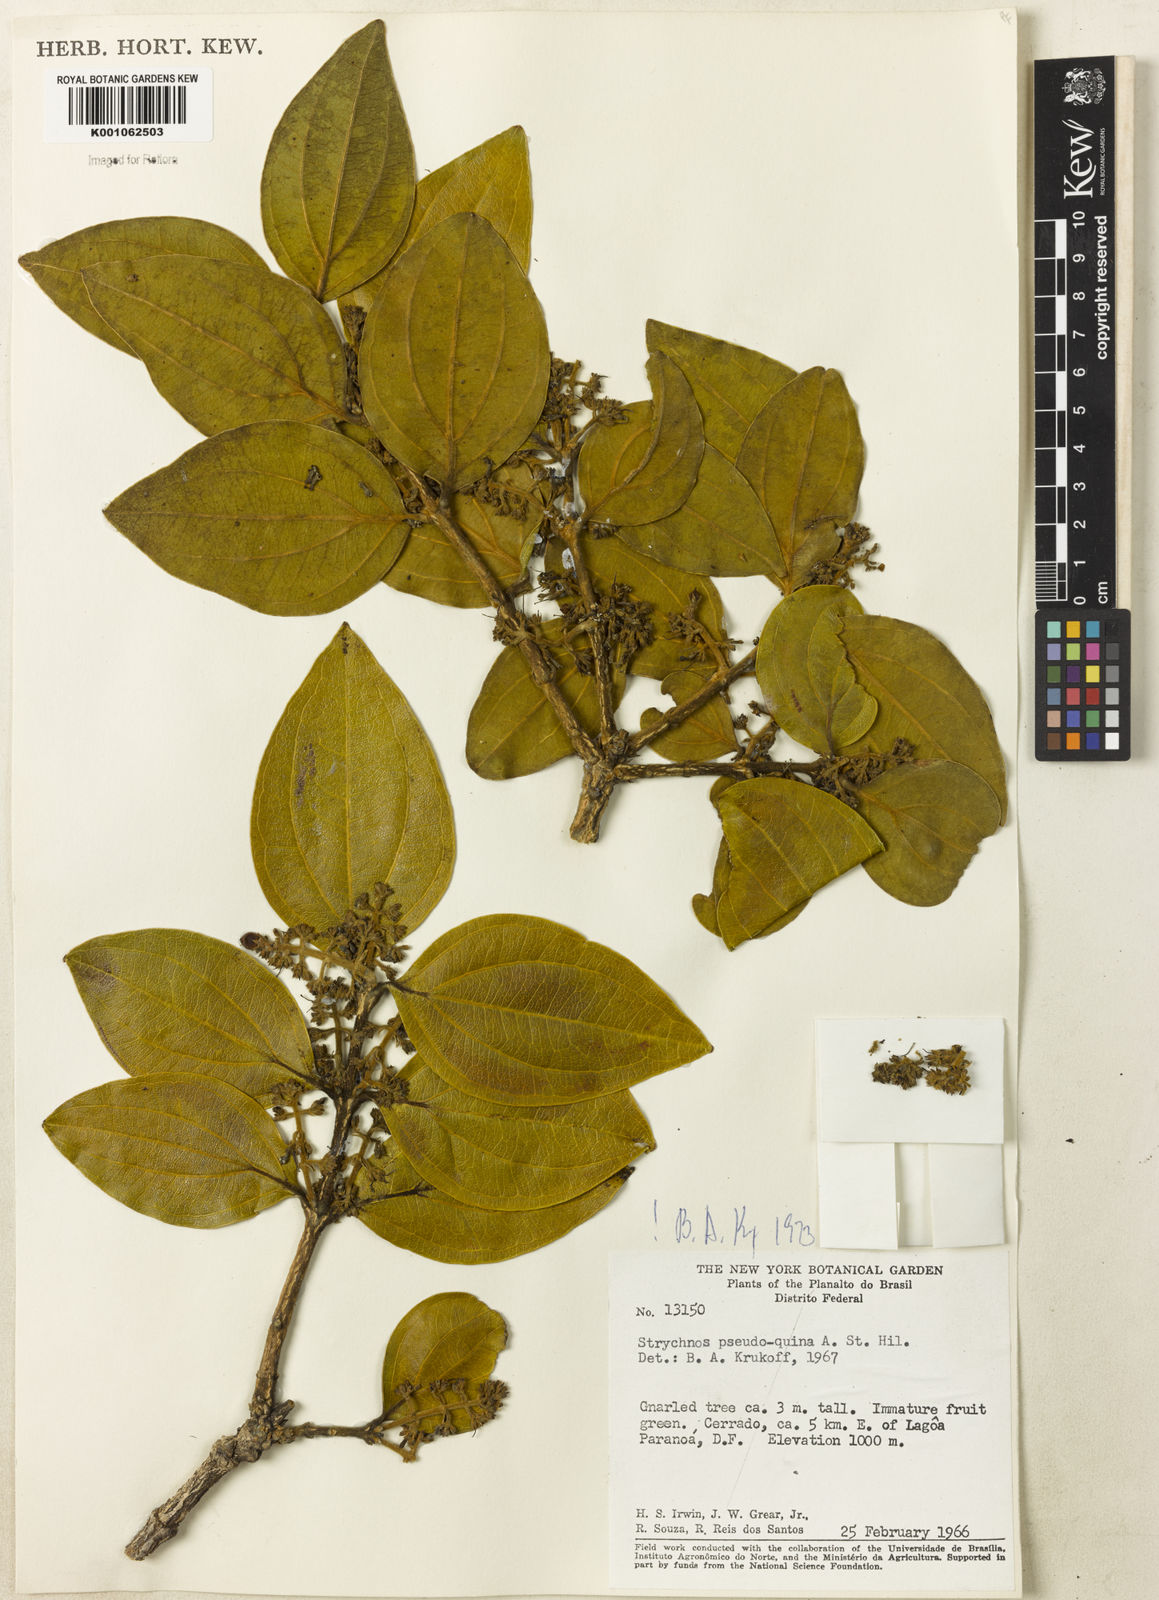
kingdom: Plantae
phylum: Tracheophyta
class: Magnoliopsida
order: Gentianales
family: Loganiaceae
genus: Strychnos
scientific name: Strychnos pseudoquina
